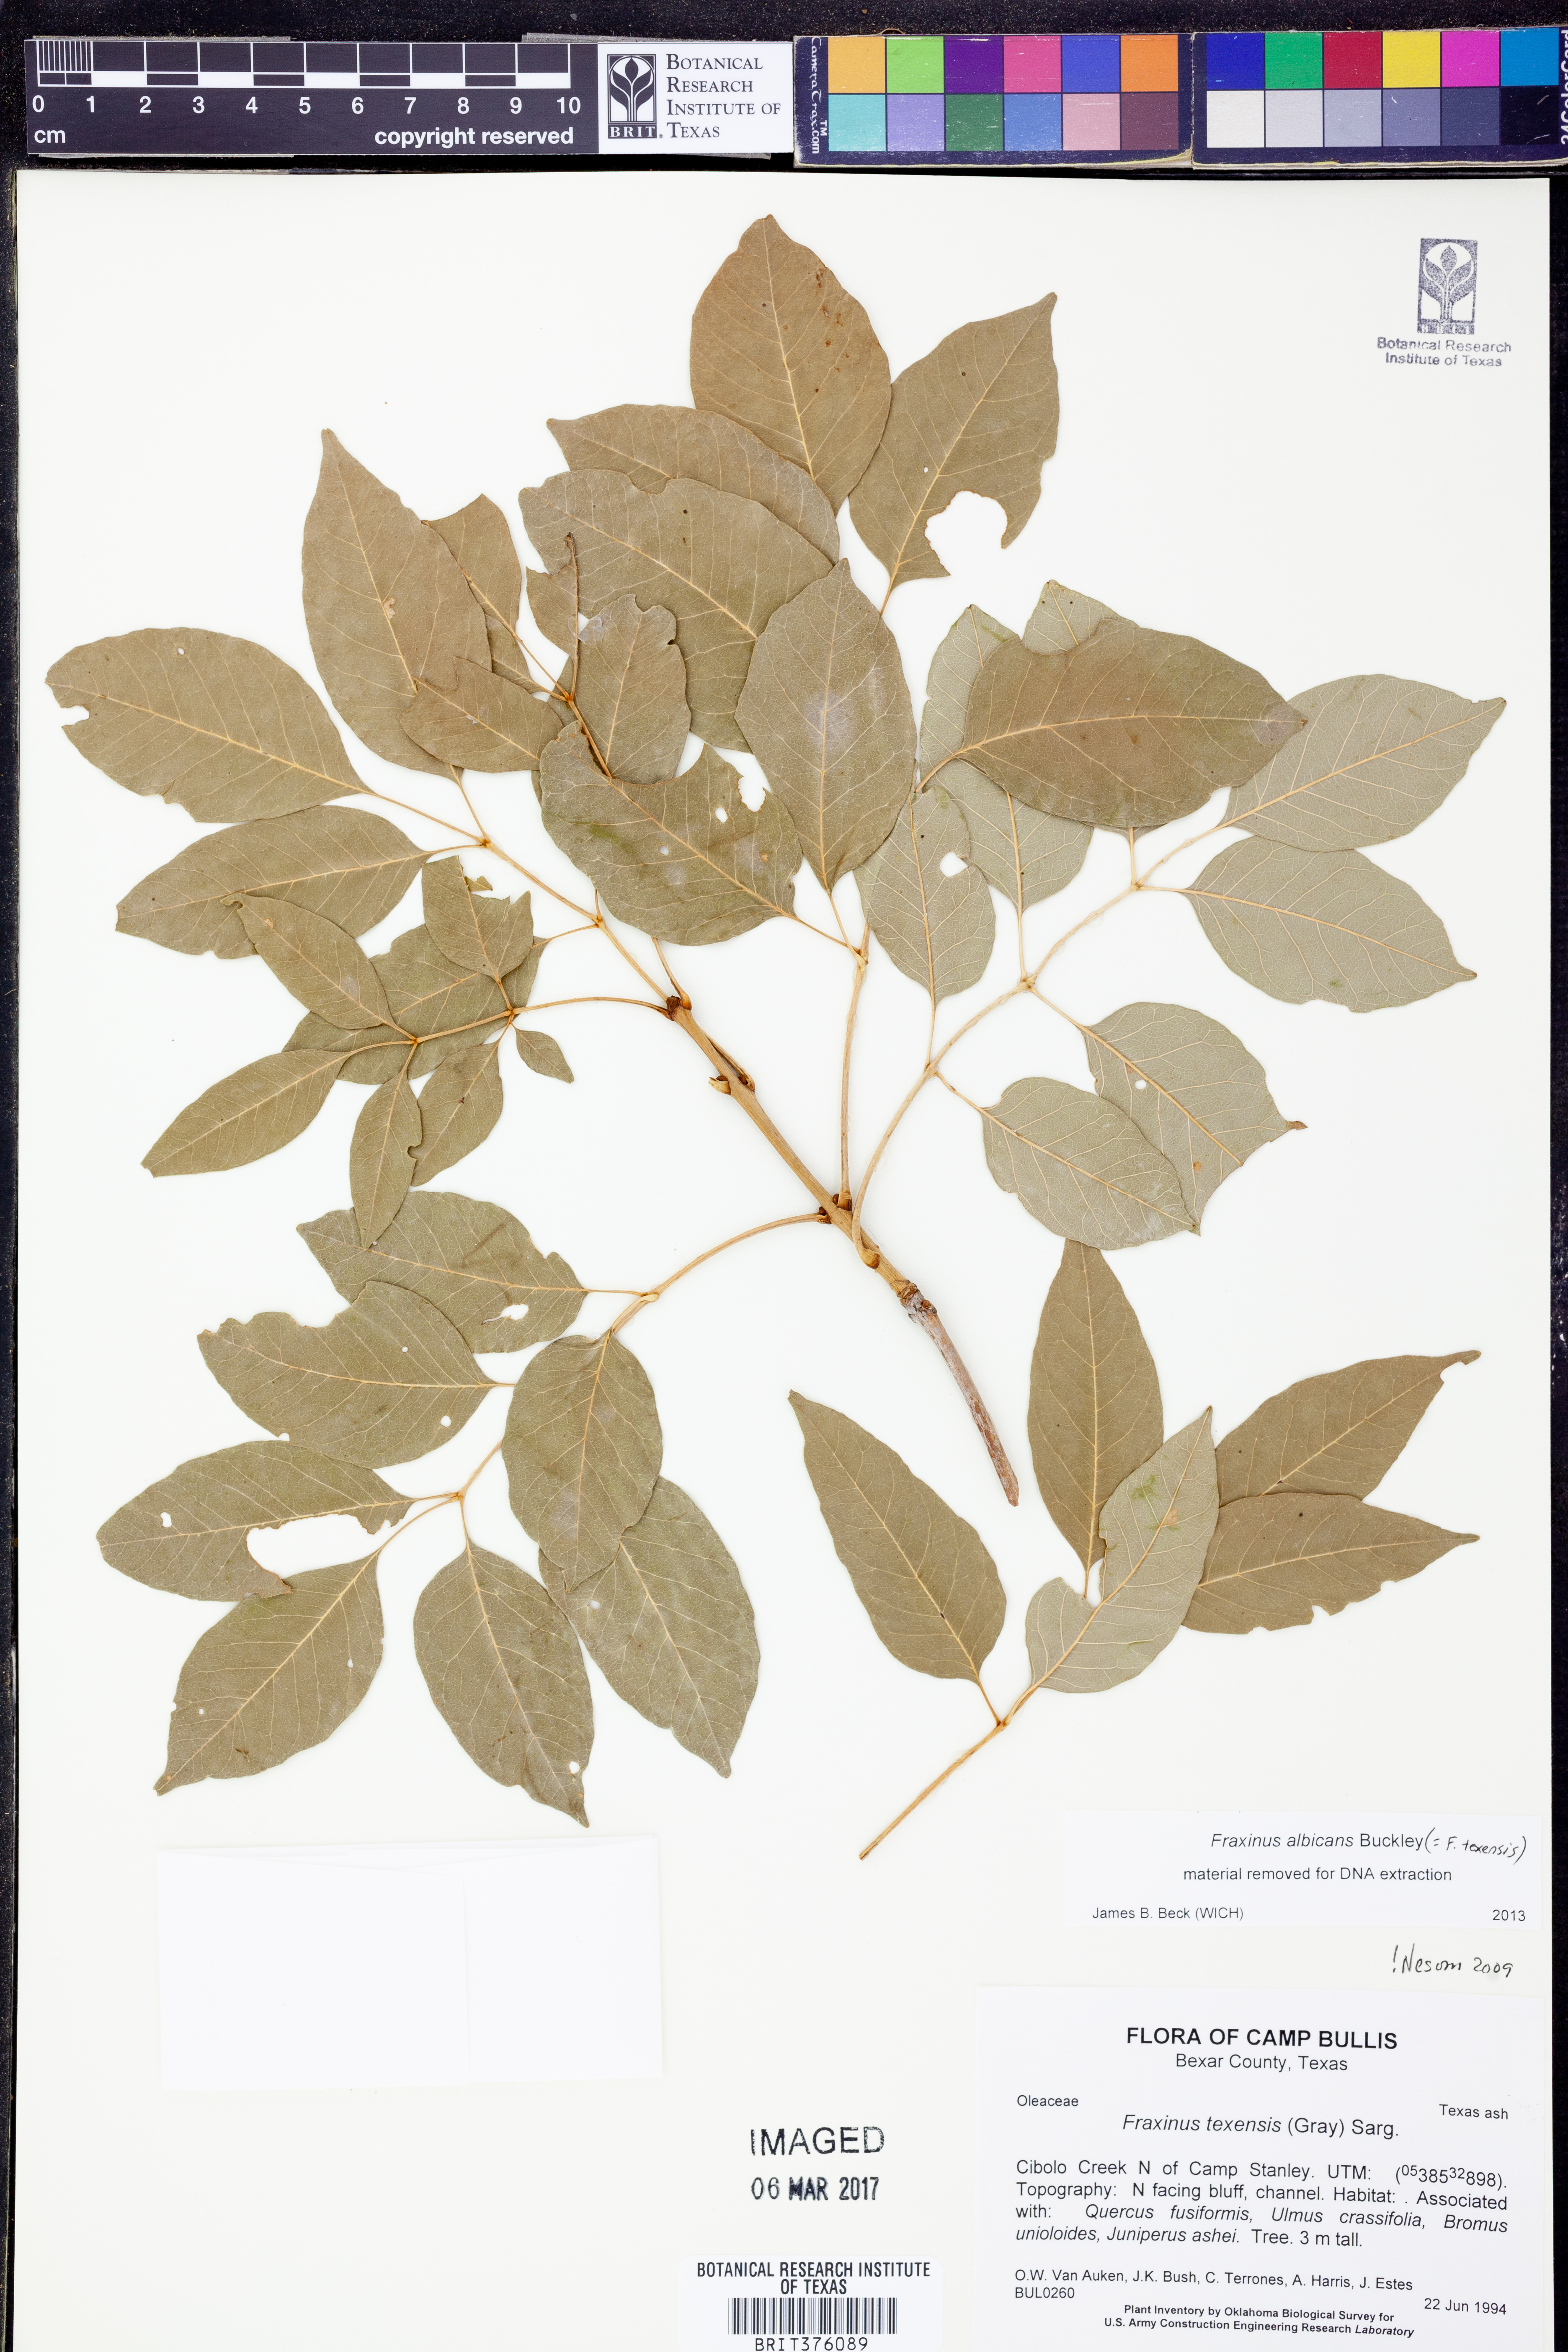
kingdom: Plantae
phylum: Tracheophyta
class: Magnoliopsida
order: Lamiales
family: Oleaceae
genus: Fraxinus
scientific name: Fraxinus albicans
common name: Texas ash
